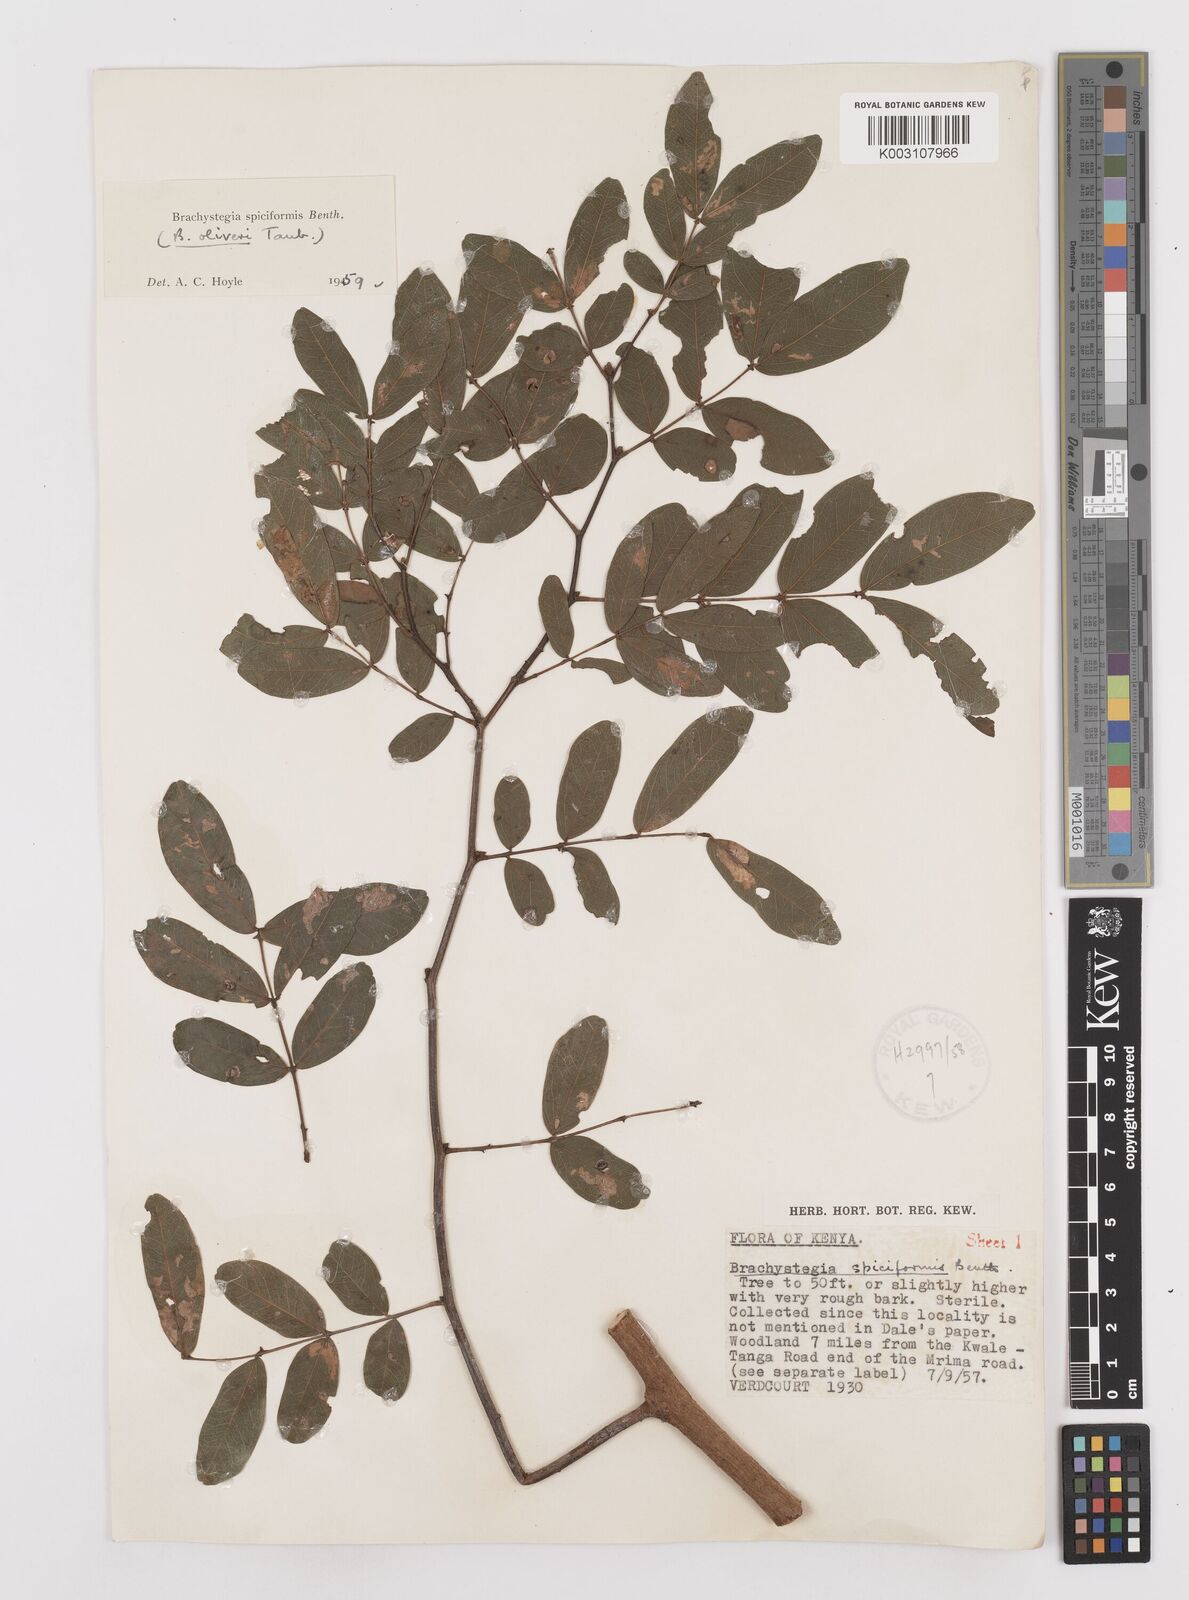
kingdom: Plantae
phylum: Tracheophyta
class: Magnoliopsida
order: Fabales
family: Fabaceae
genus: Brachystegia
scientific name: Brachystegia spiciformis
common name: Zebrawood
